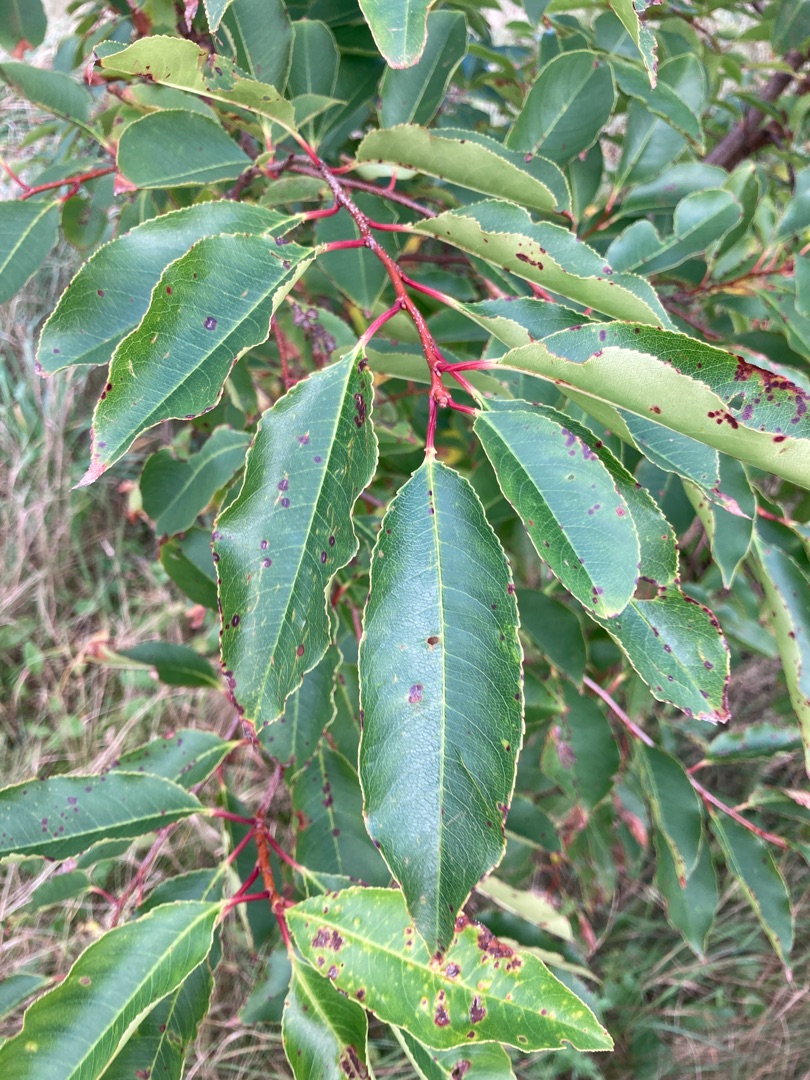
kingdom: Plantae
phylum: Tracheophyta
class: Magnoliopsida
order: Rosales
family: Rosaceae
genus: Prunus
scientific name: Prunus serotina
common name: Glansbladet hæg
